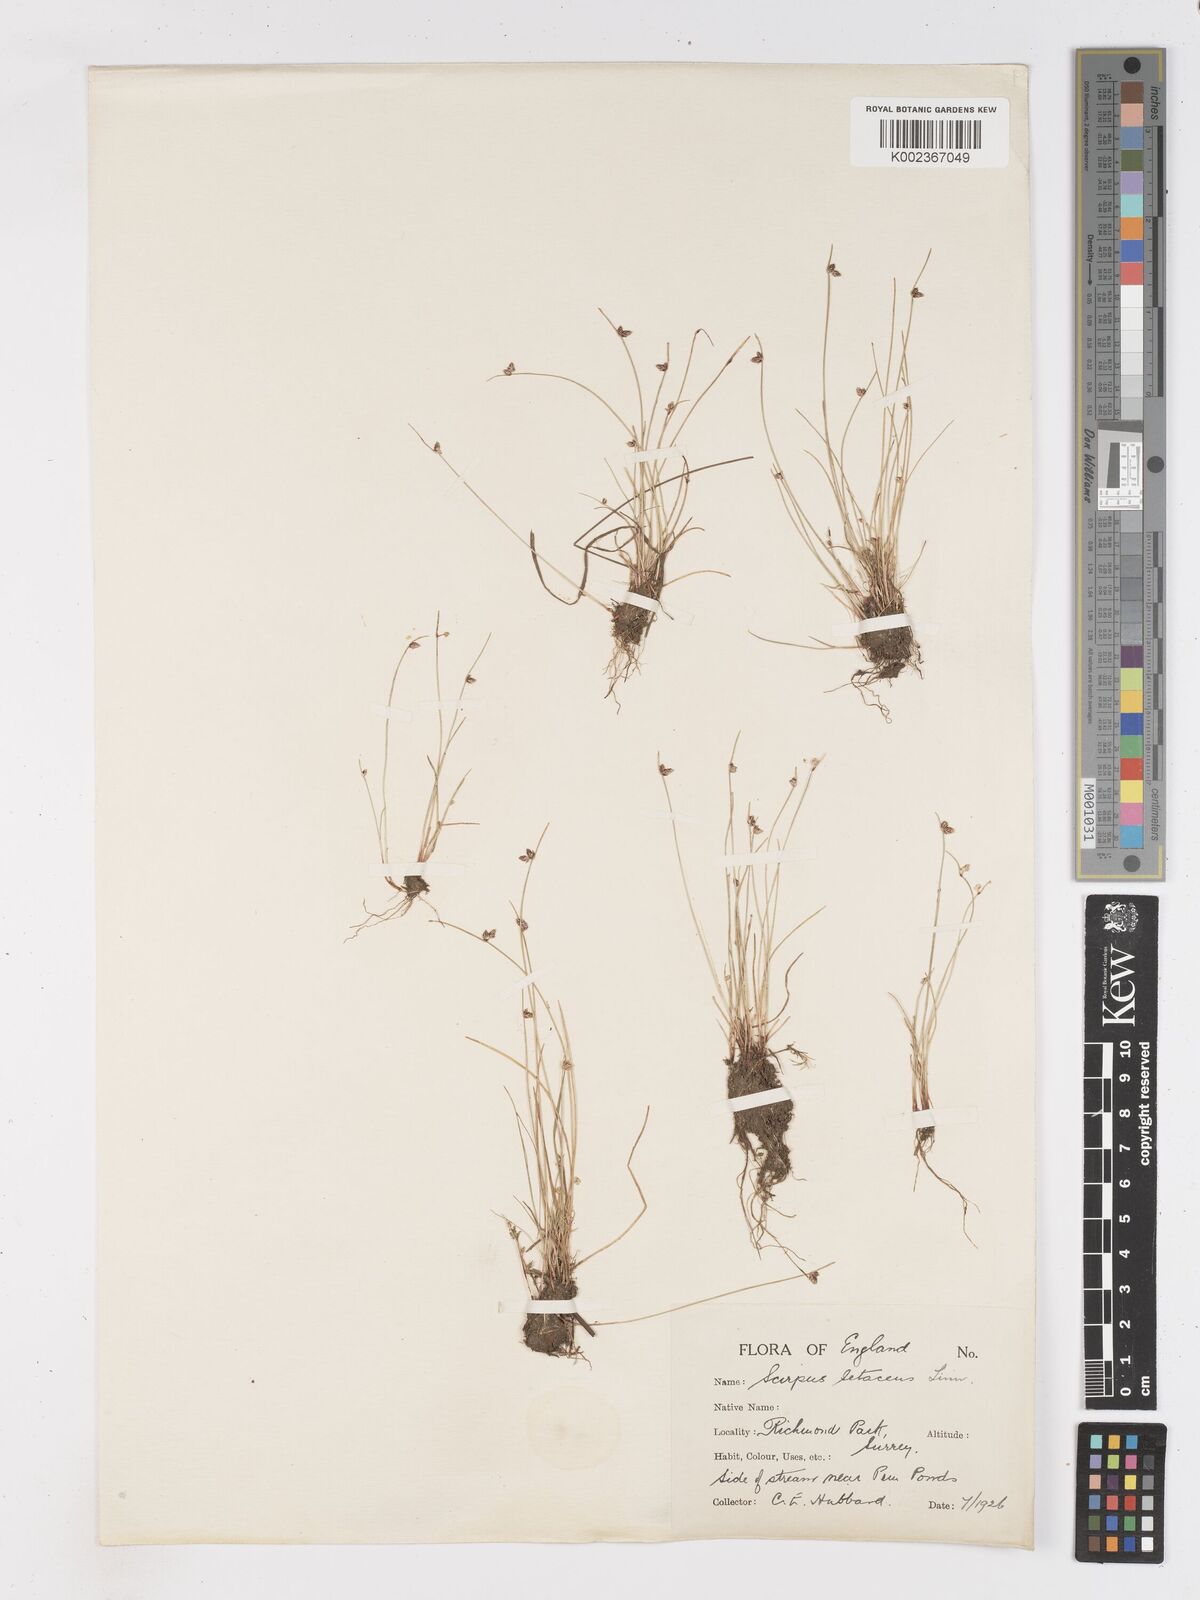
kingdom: Plantae
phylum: Tracheophyta
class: Liliopsida
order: Poales
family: Cyperaceae
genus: Isolepis
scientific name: Isolepis setacea
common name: Bristle club-rush
